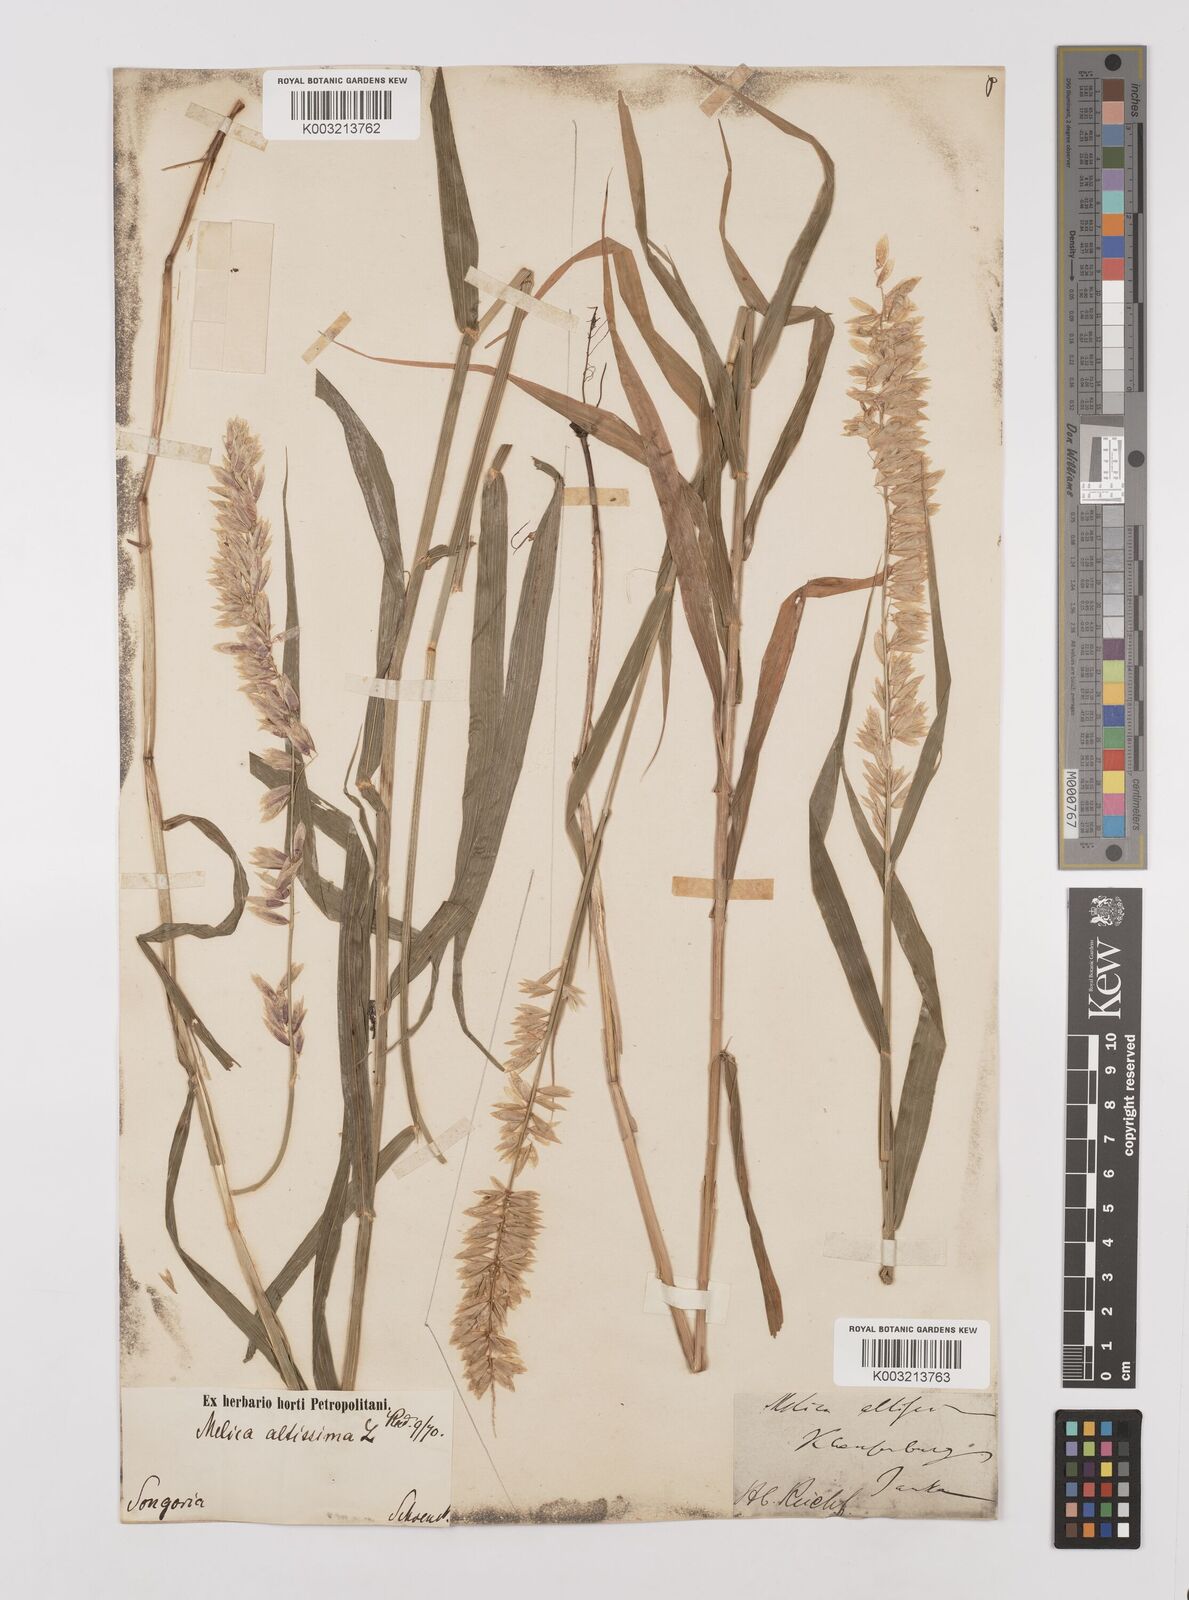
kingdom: Plantae
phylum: Tracheophyta
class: Liliopsida
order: Poales
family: Poaceae
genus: Melica
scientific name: Melica
